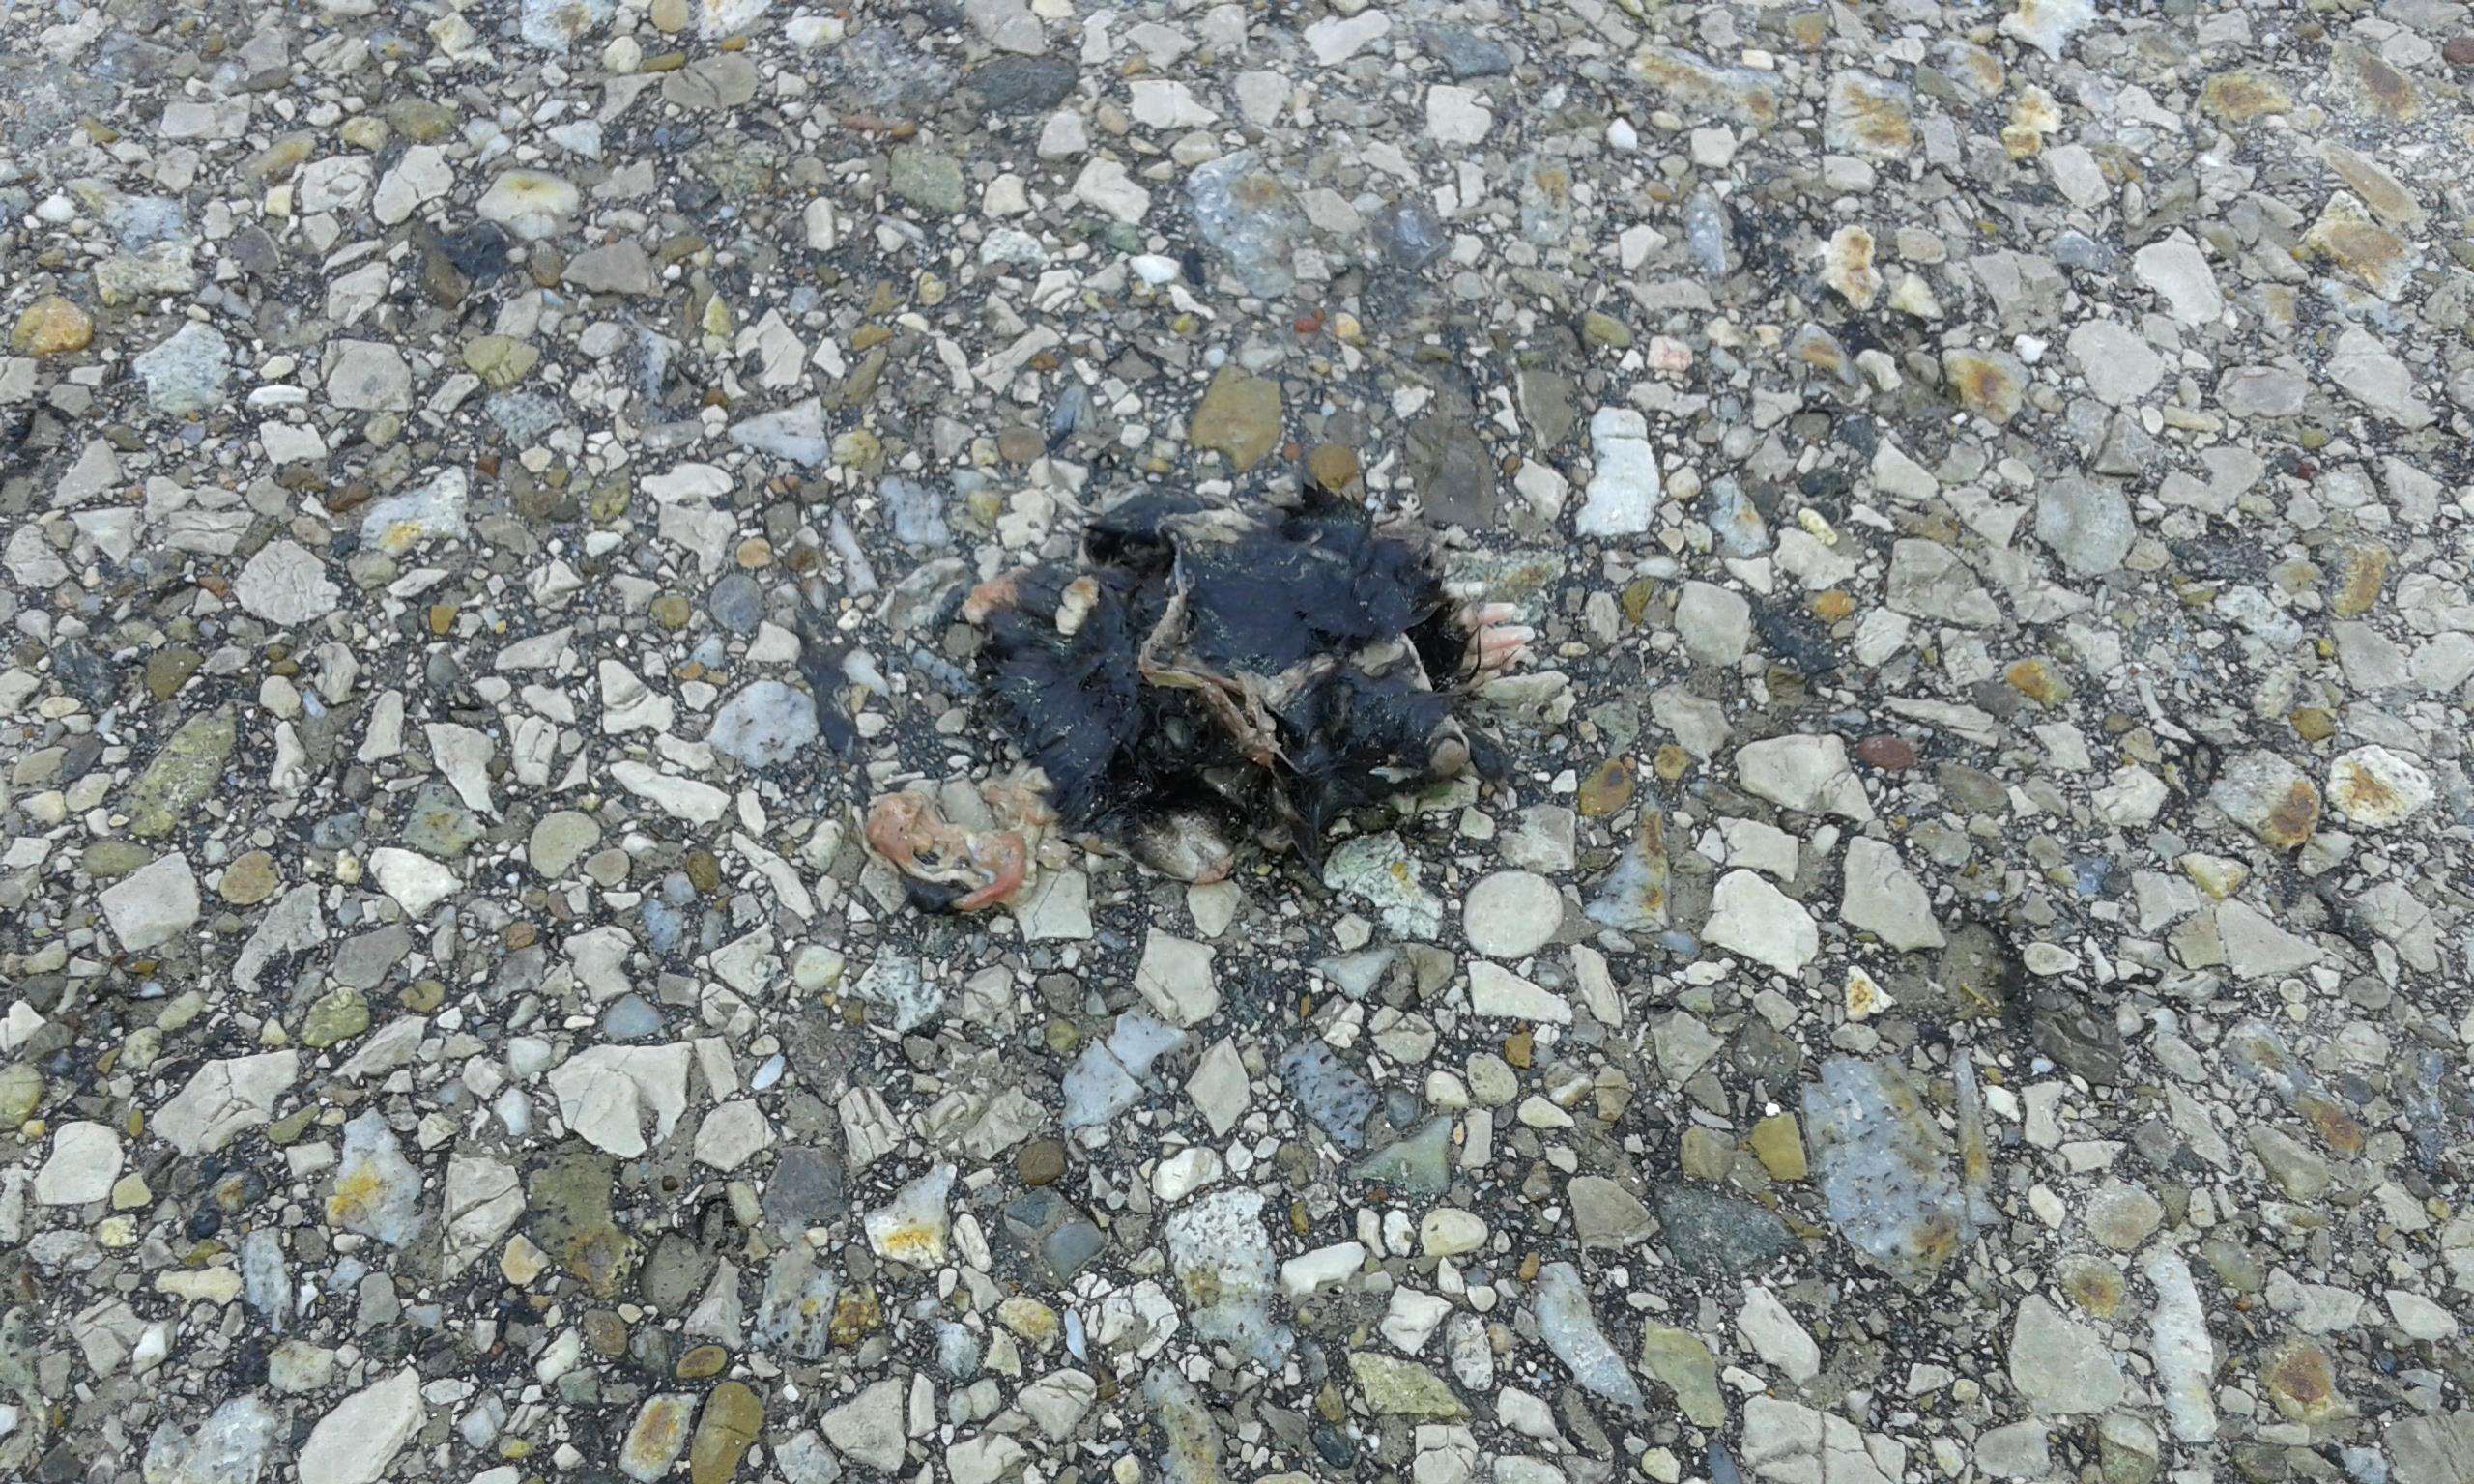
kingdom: Animalia
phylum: Chordata
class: Mammalia
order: Soricomorpha
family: Talpidae
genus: Talpa
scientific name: Talpa europaea
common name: European mole
